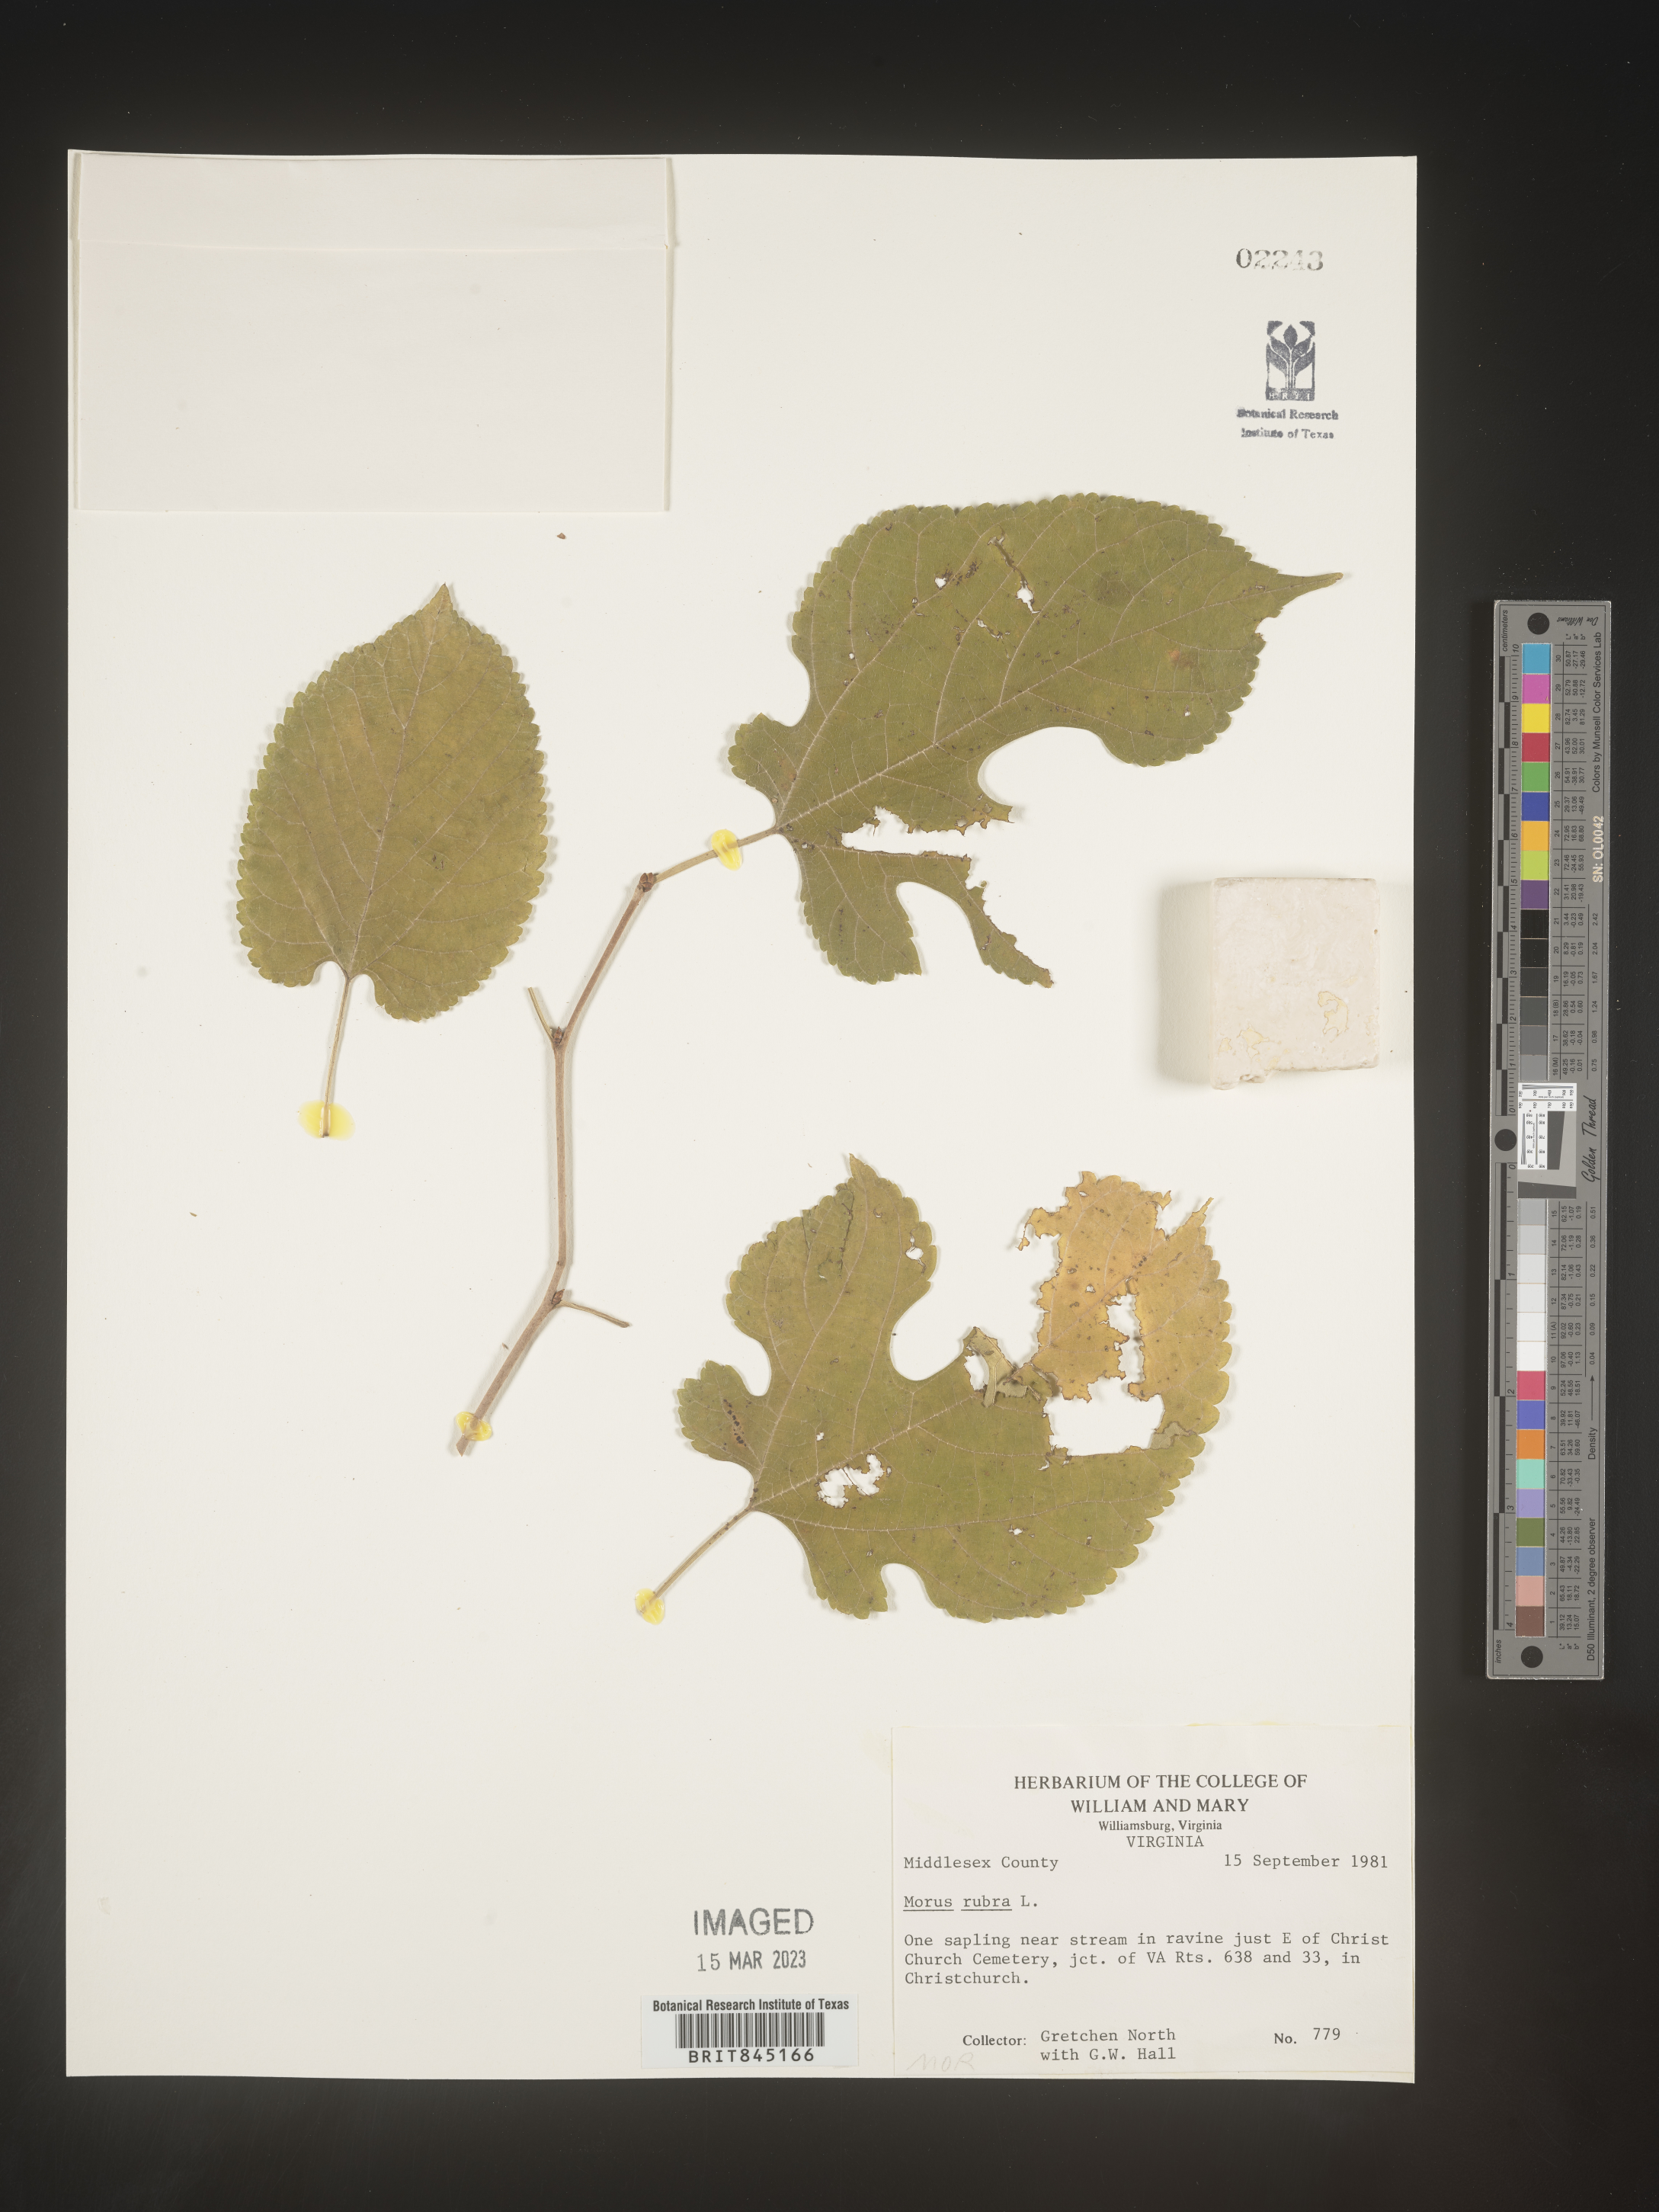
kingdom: Plantae
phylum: Tracheophyta
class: Magnoliopsida
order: Rosales
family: Moraceae
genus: Morus
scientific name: Morus rubra
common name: Red mulberry
